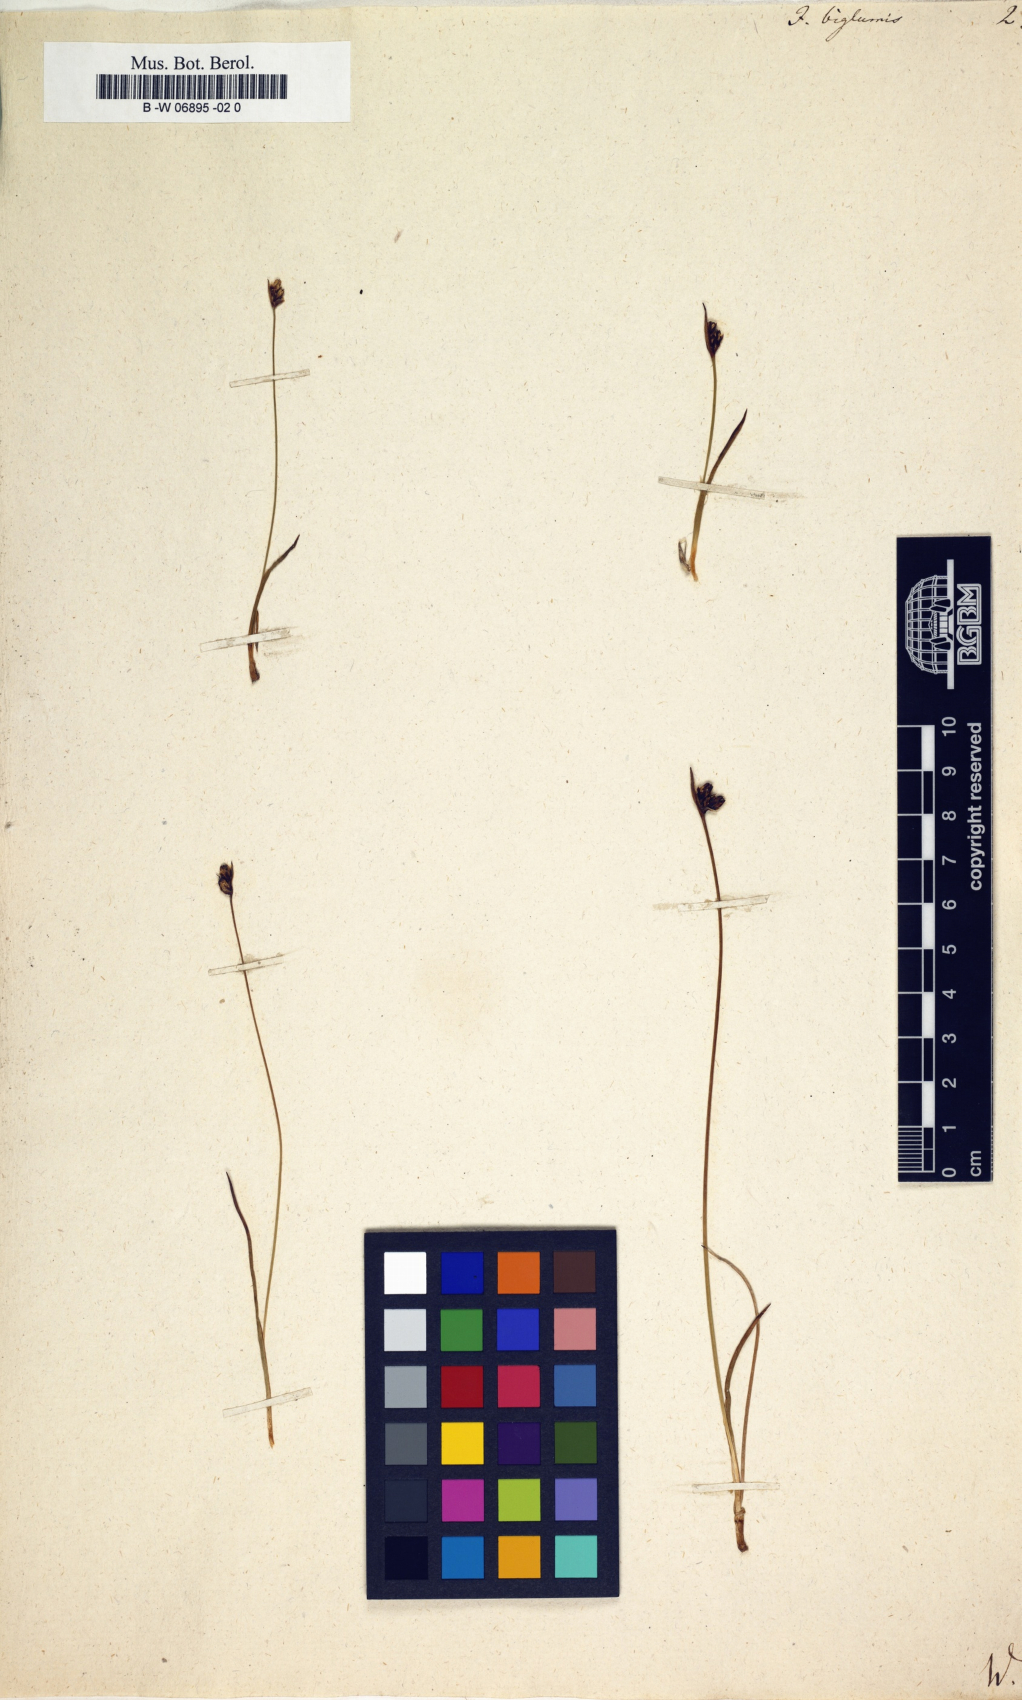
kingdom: Plantae
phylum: Tracheophyta
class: Liliopsida
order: Poales
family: Juncaceae
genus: Juncus
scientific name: Juncus biglumis
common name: Two-flowered rush
